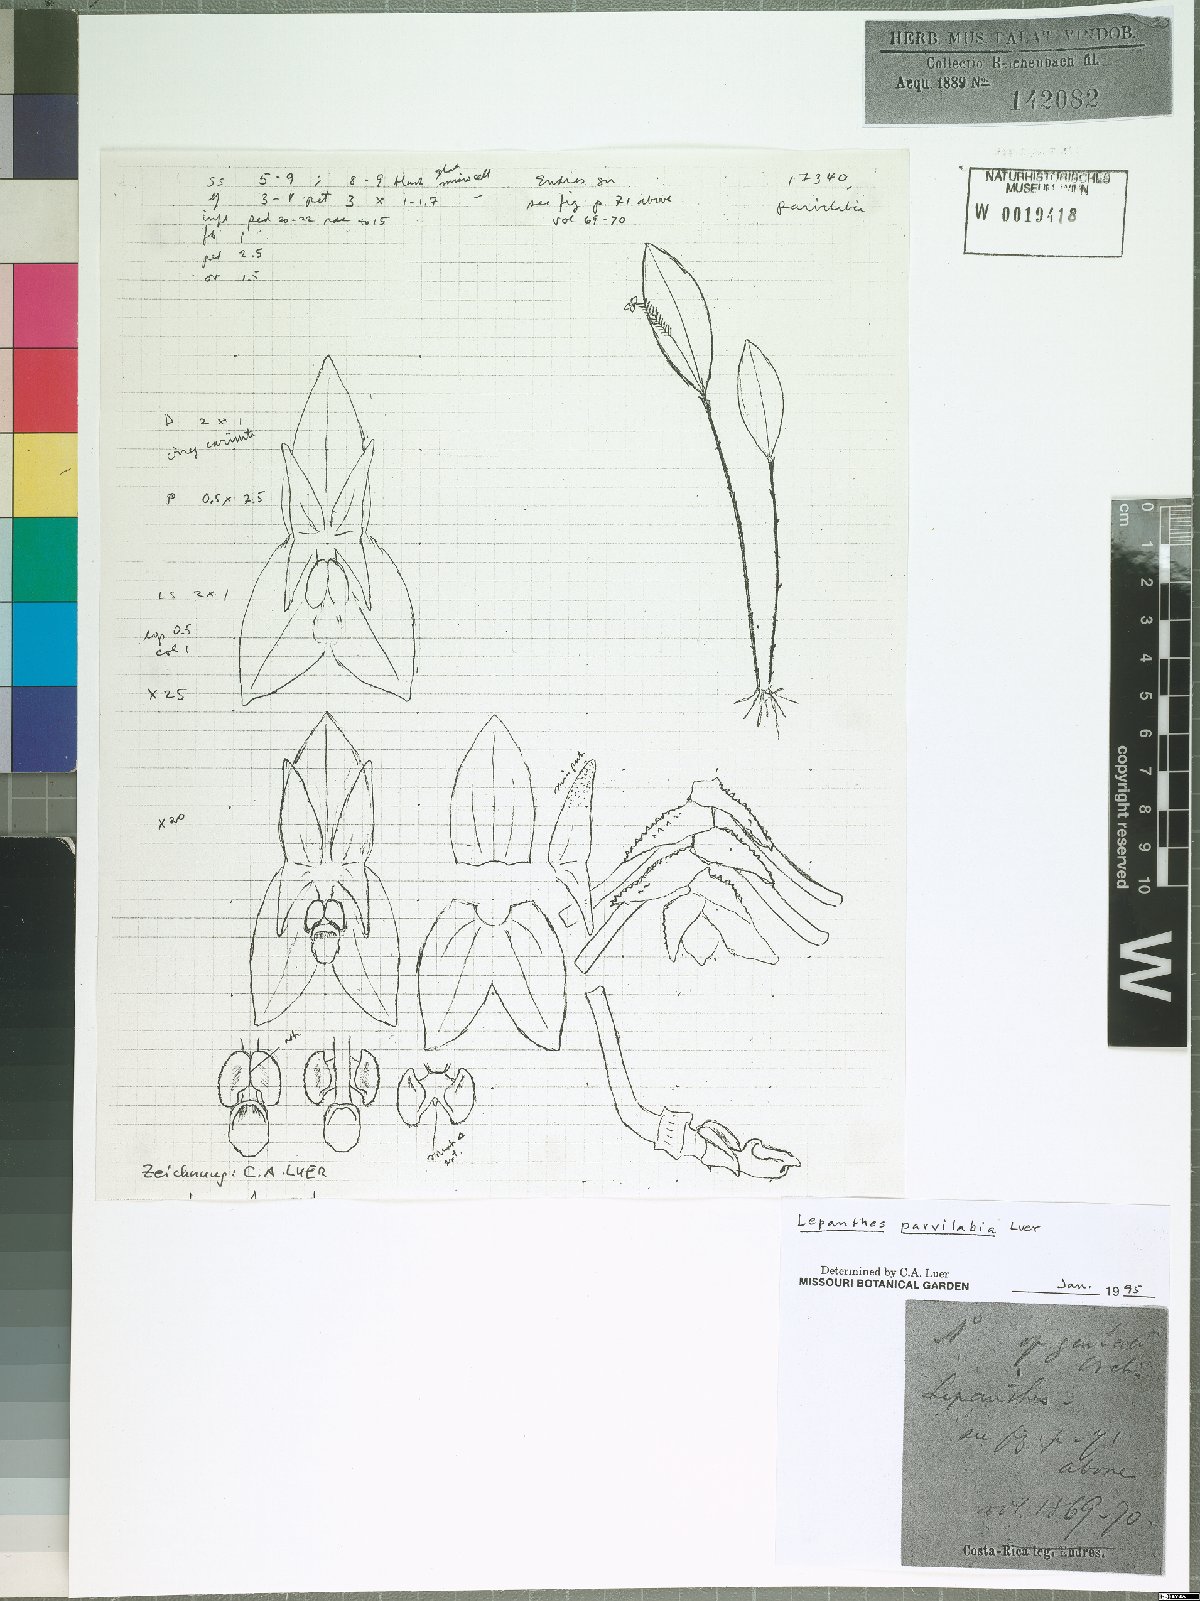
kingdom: Plantae
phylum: Tracheophyta
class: Liliopsida
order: Asparagales
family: Orchidaceae
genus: Lepanthes
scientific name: Lepanthes parvilabia
